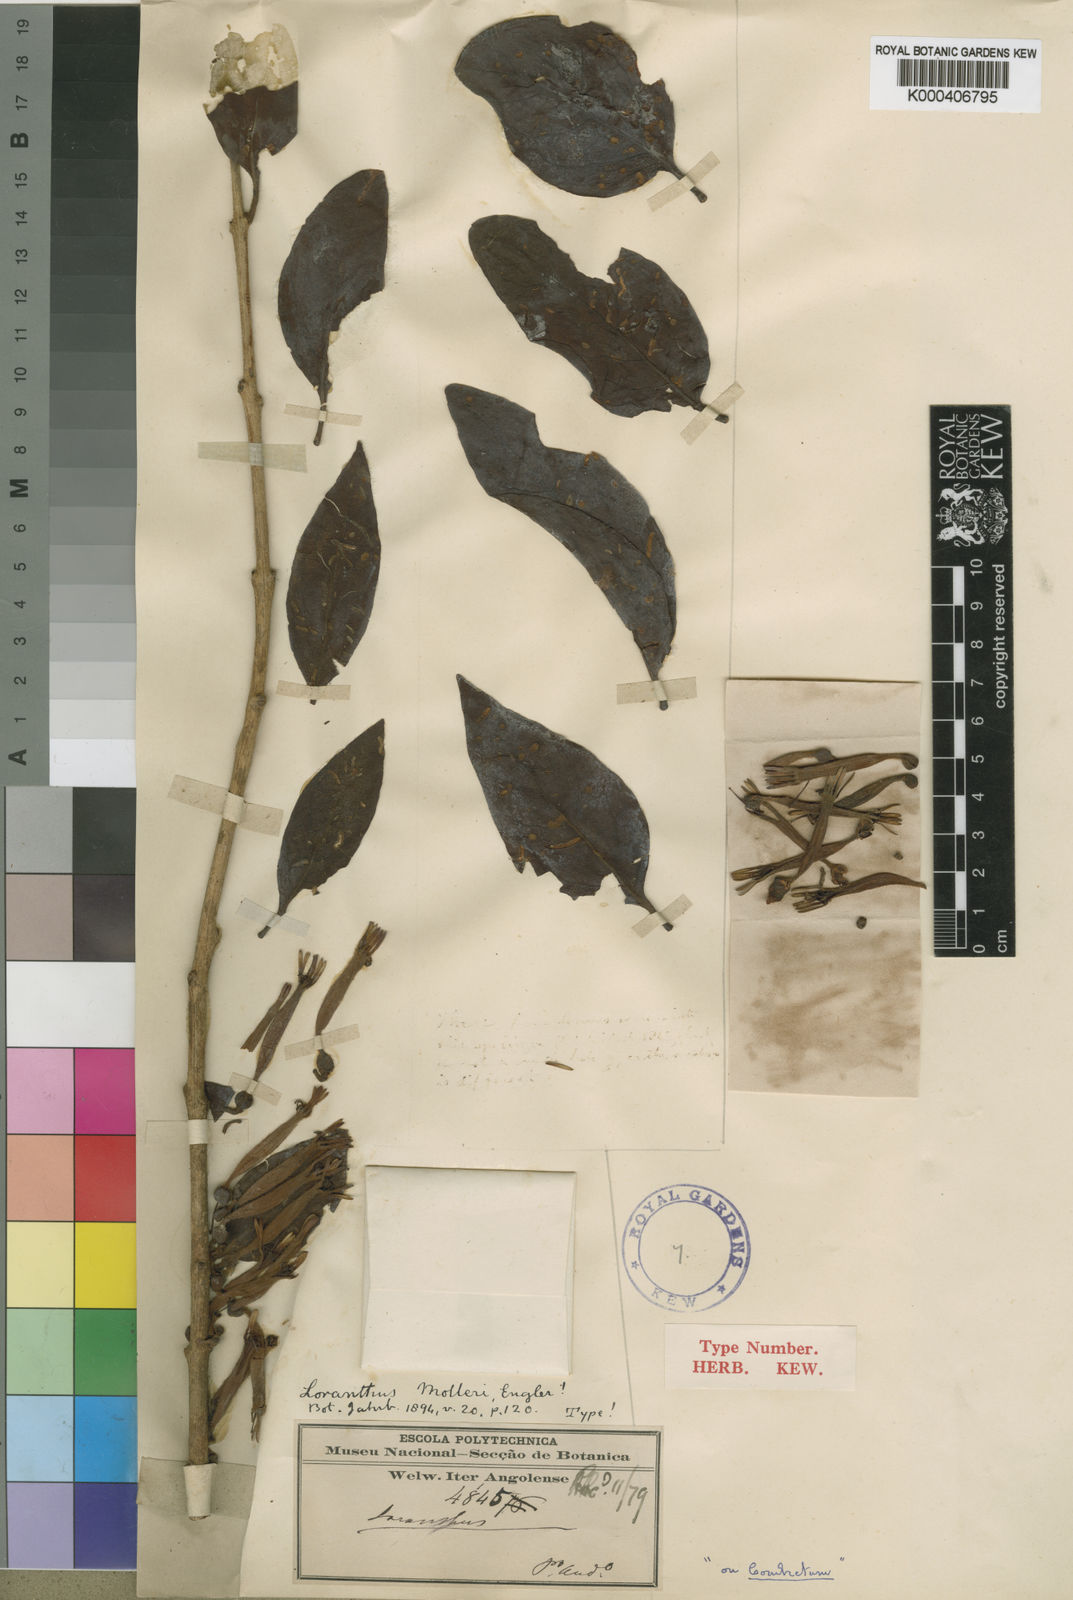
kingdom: Plantae
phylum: Tracheophyta
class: Magnoliopsida
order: Santalales
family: Loranthaceae
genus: Agelanthus
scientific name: Agelanthus molleri
